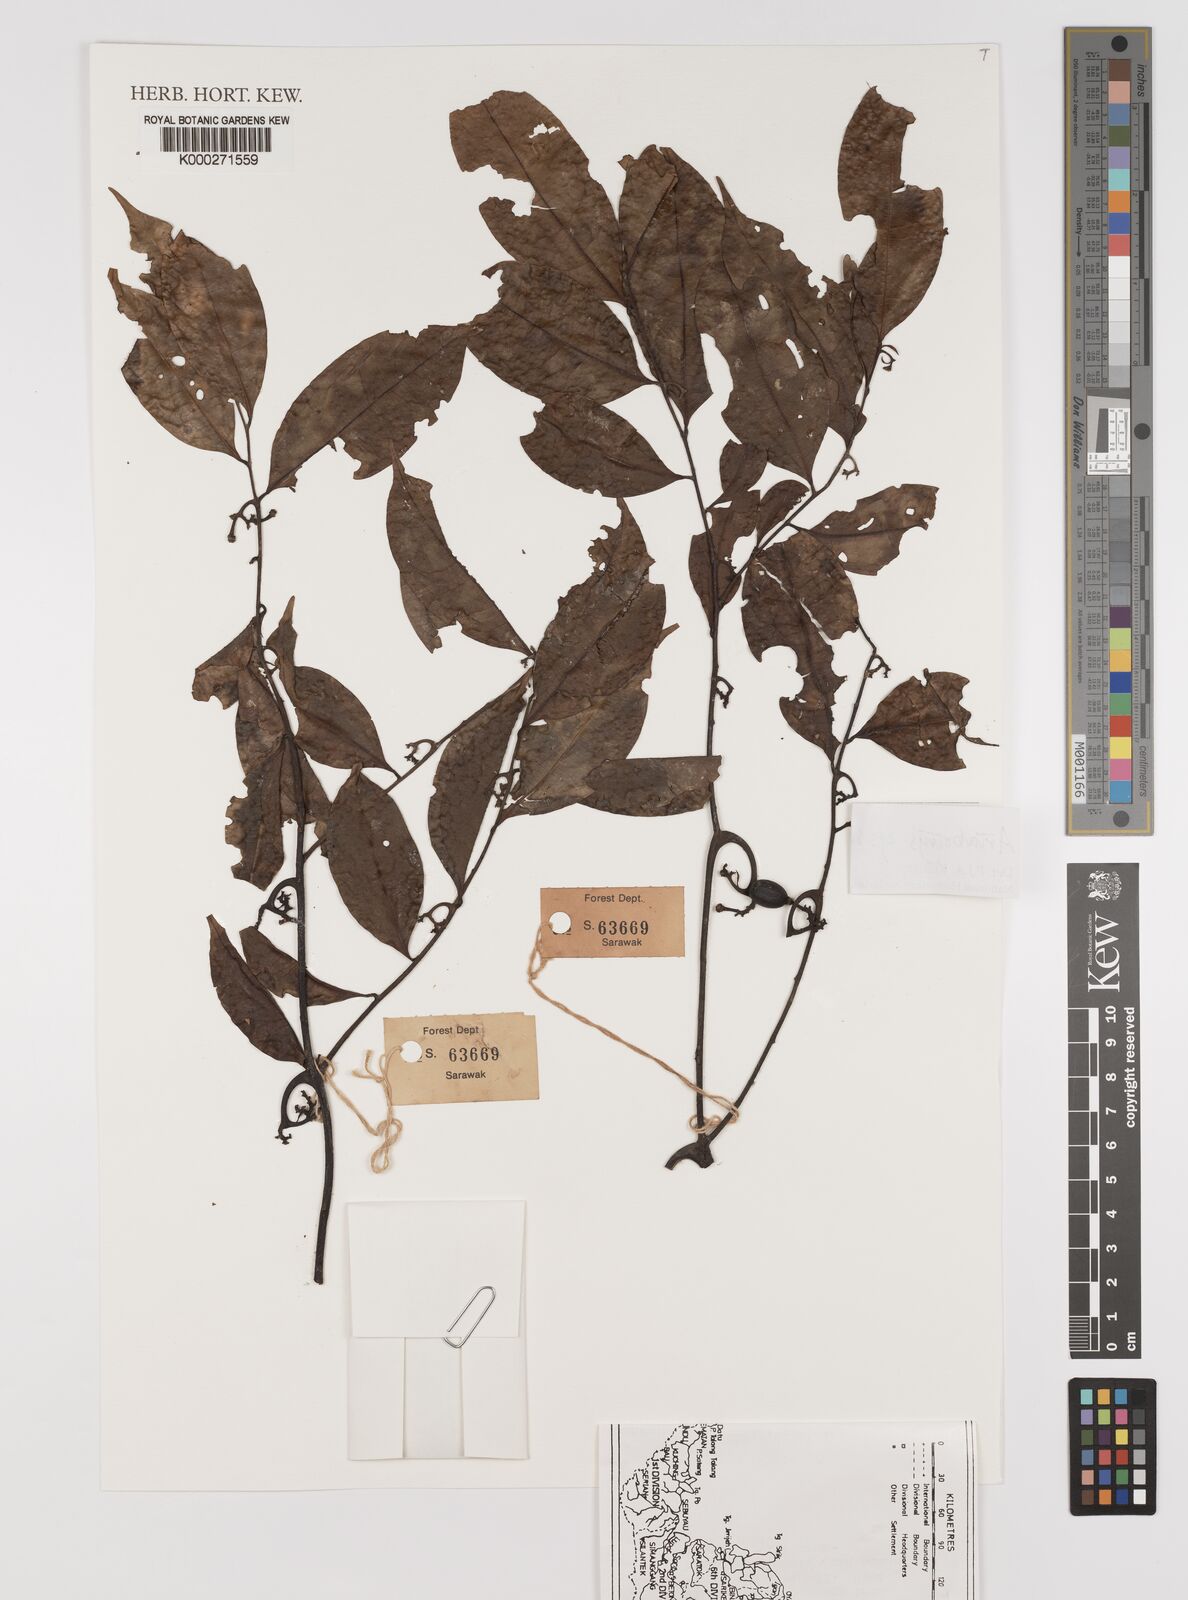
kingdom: Plantae
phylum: Tracheophyta
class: Magnoliopsida
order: Magnoliales
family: Annonaceae
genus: Artabotrys
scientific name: Artabotrys suaveolens
